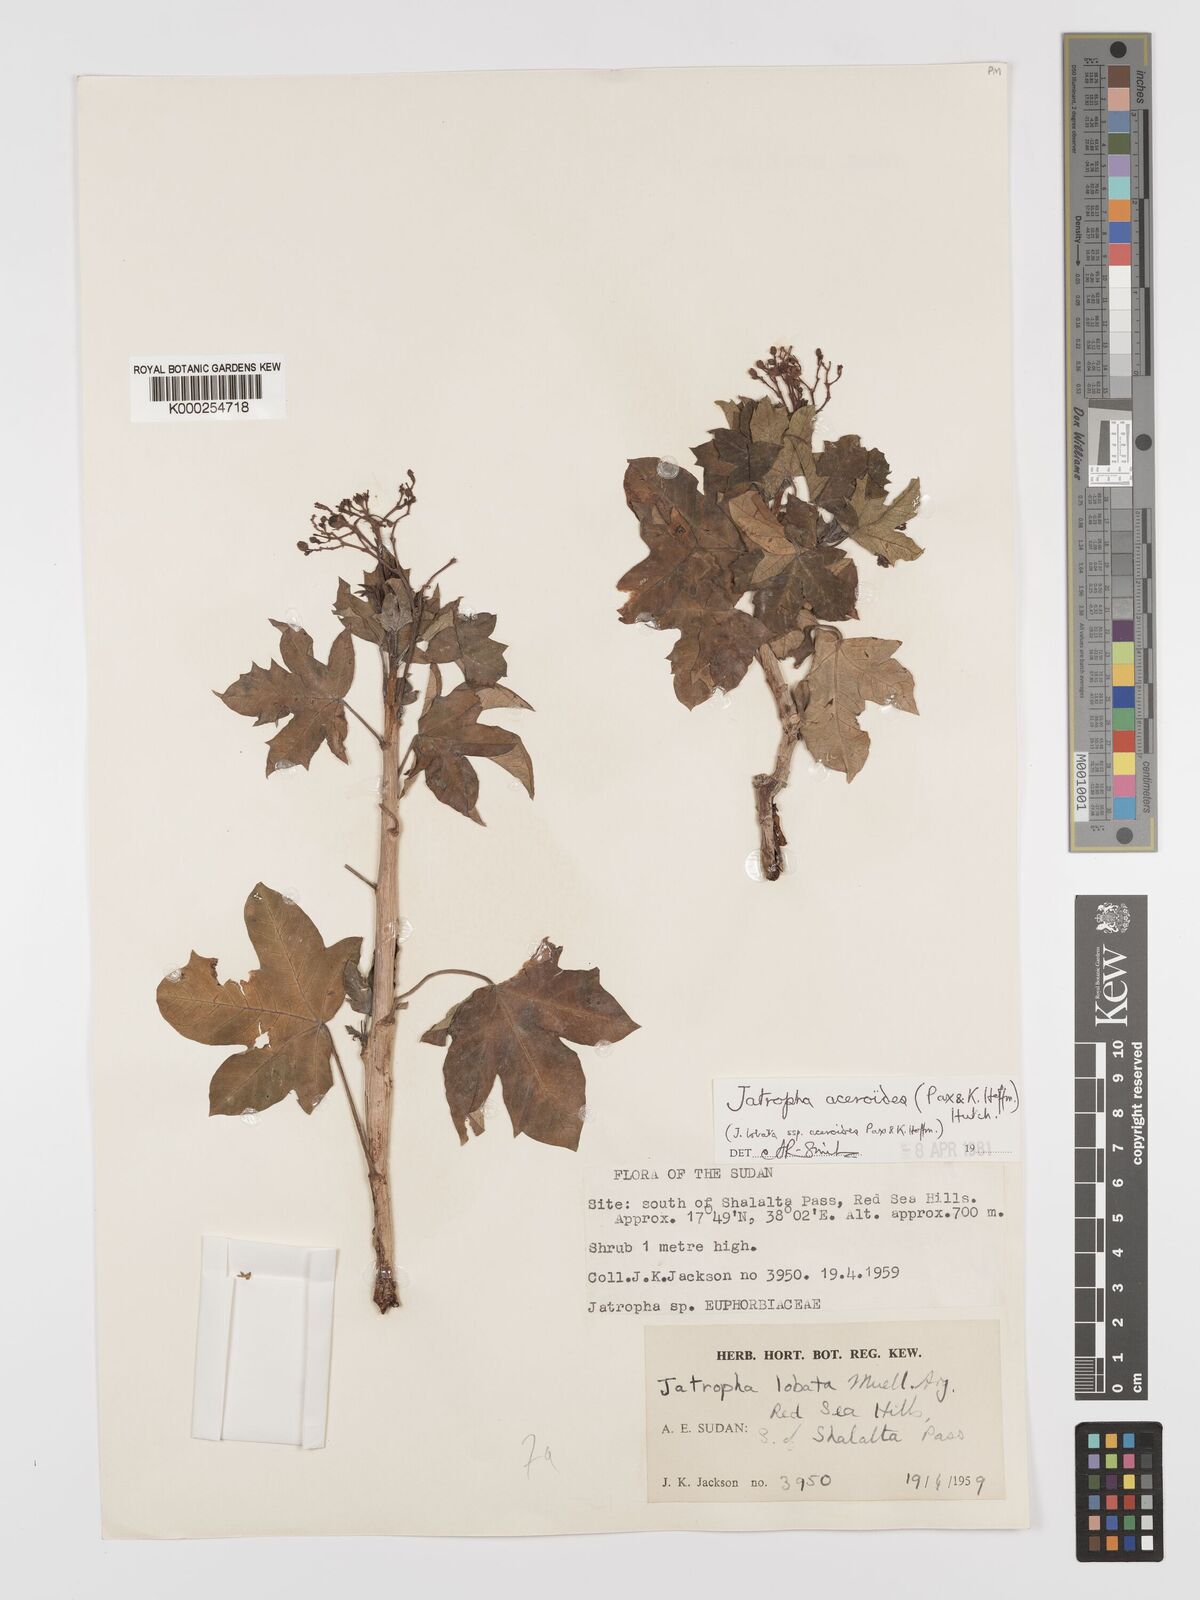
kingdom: Plantae
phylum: Tracheophyta
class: Magnoliopsida
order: Malpighiales
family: Euphorbiaceae
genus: Jatropha
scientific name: Jatropha aceroides
